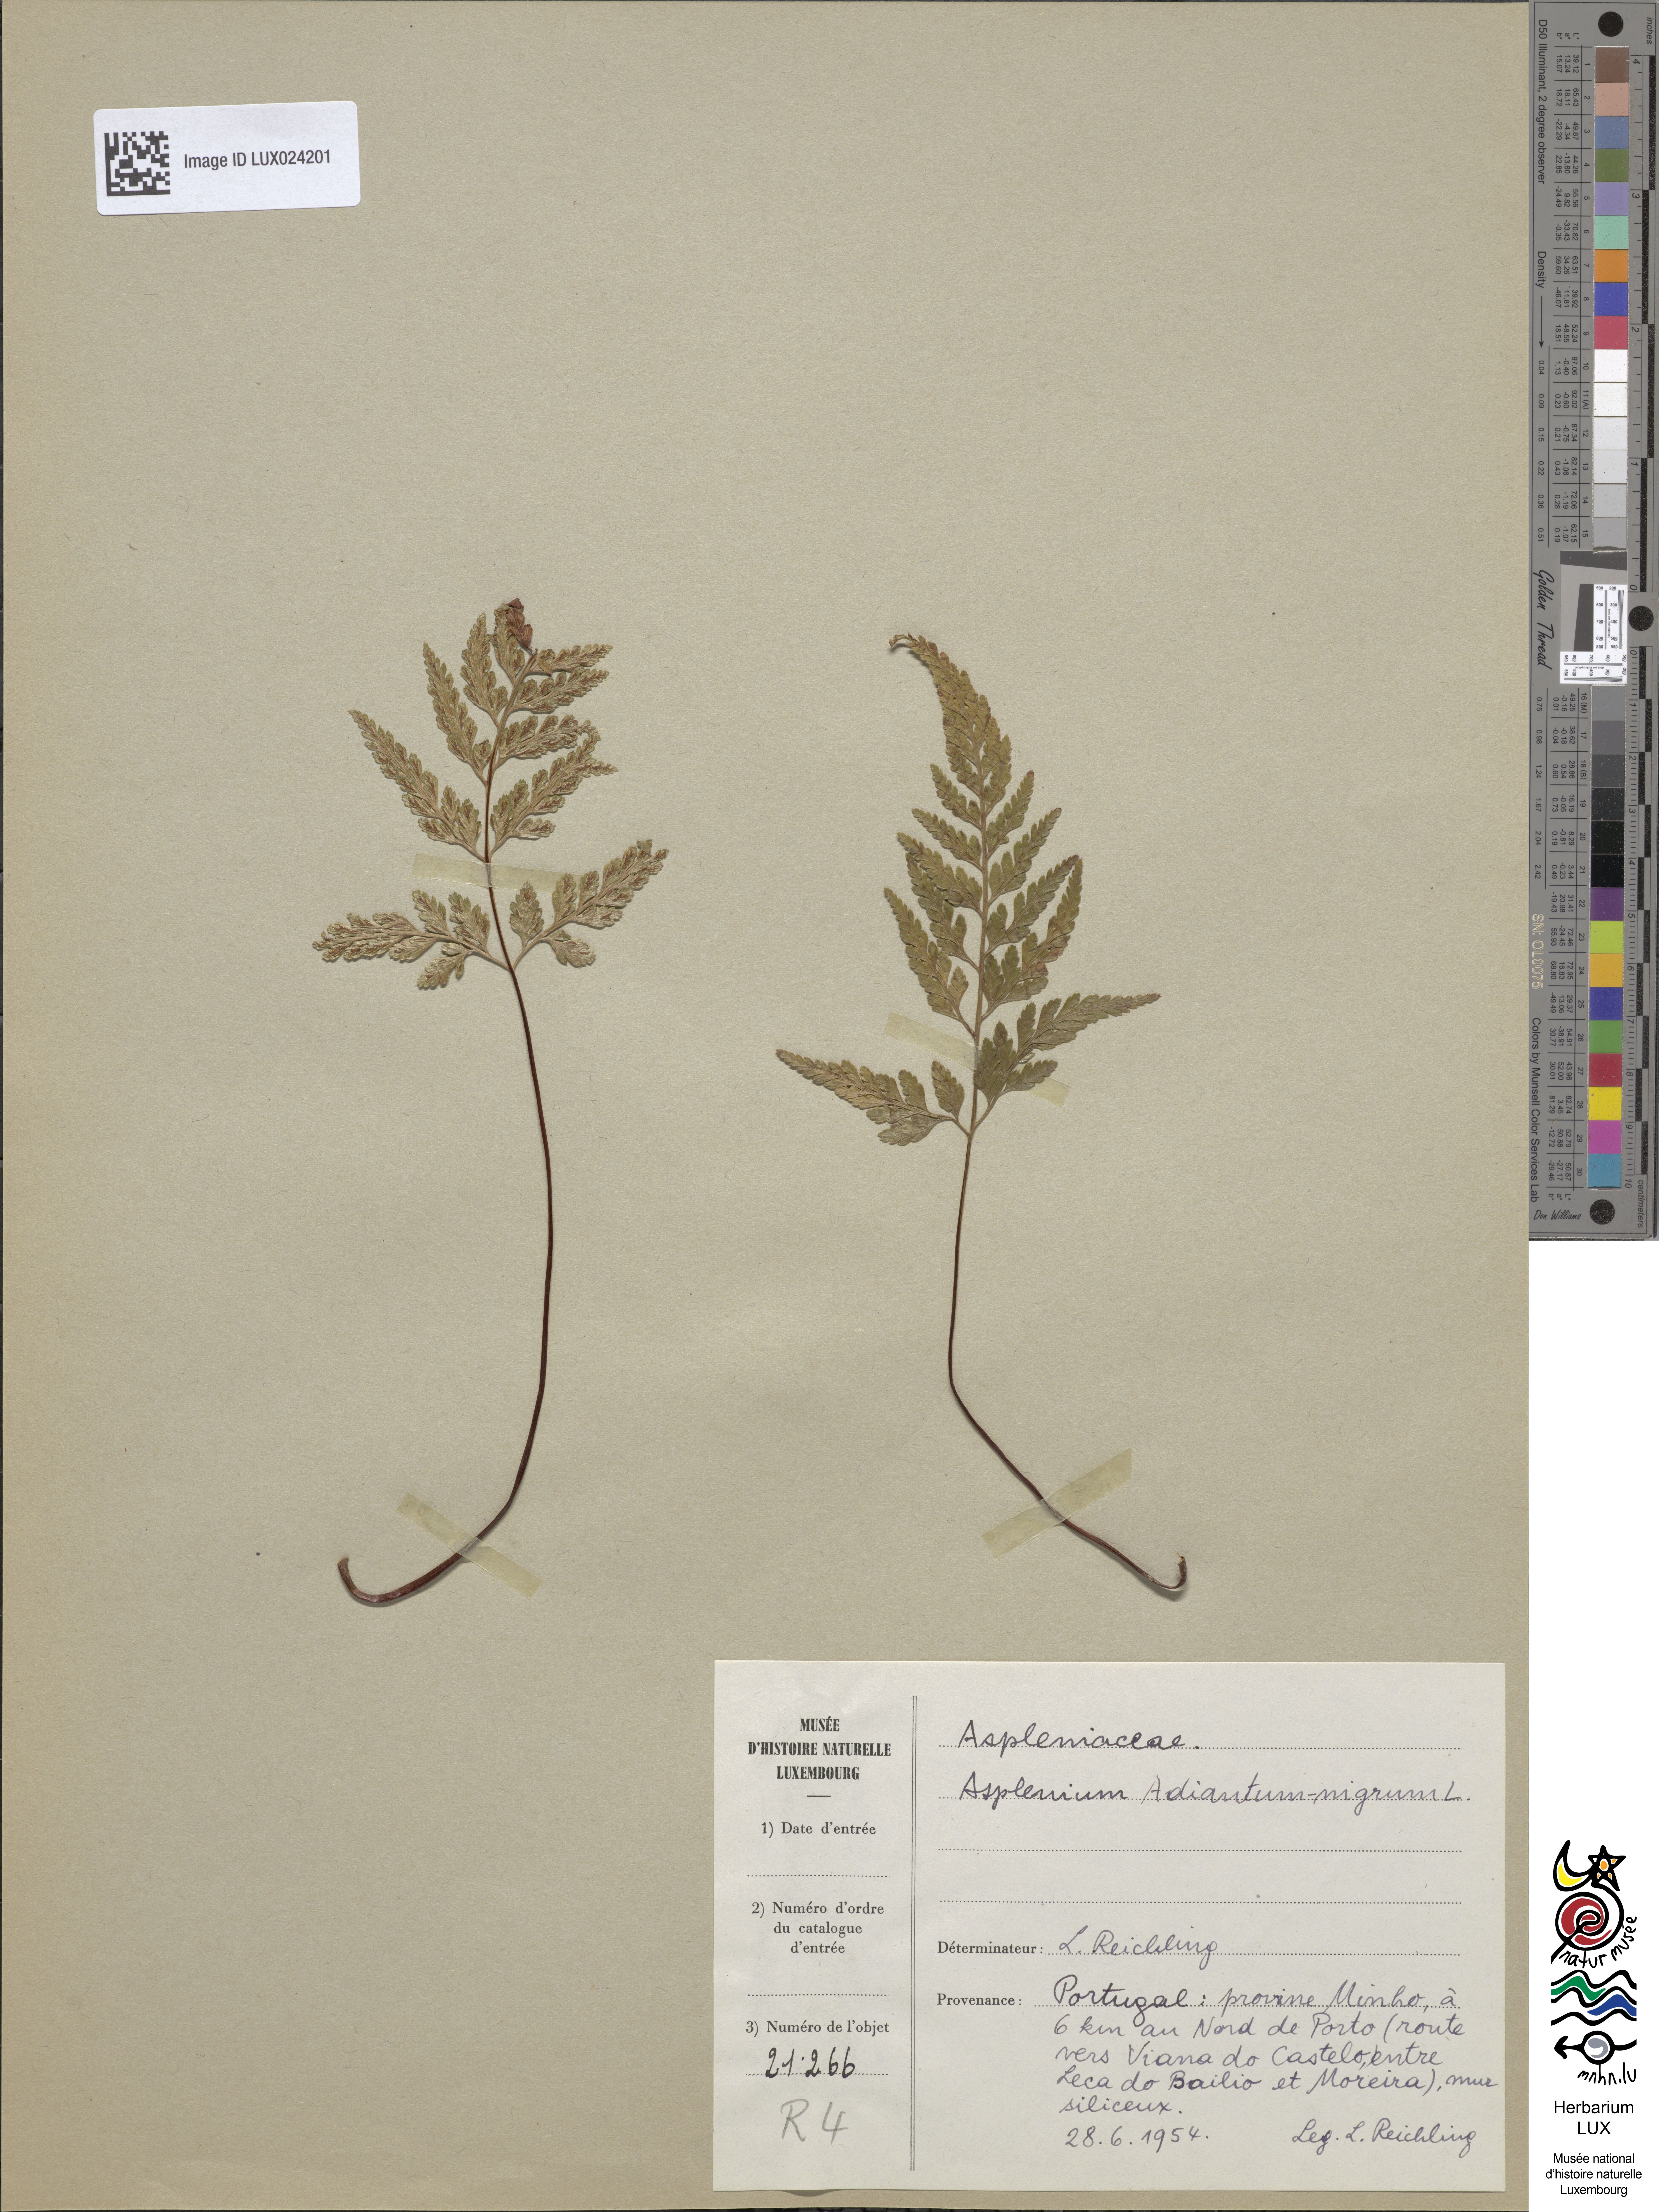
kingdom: Plantae
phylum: Tracheophyta
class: Polypodiopsida
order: Polypodiales
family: Aspleniaceae
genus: Asplenium
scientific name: Asplenium adiantum-nigrum
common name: Black spleenwort
